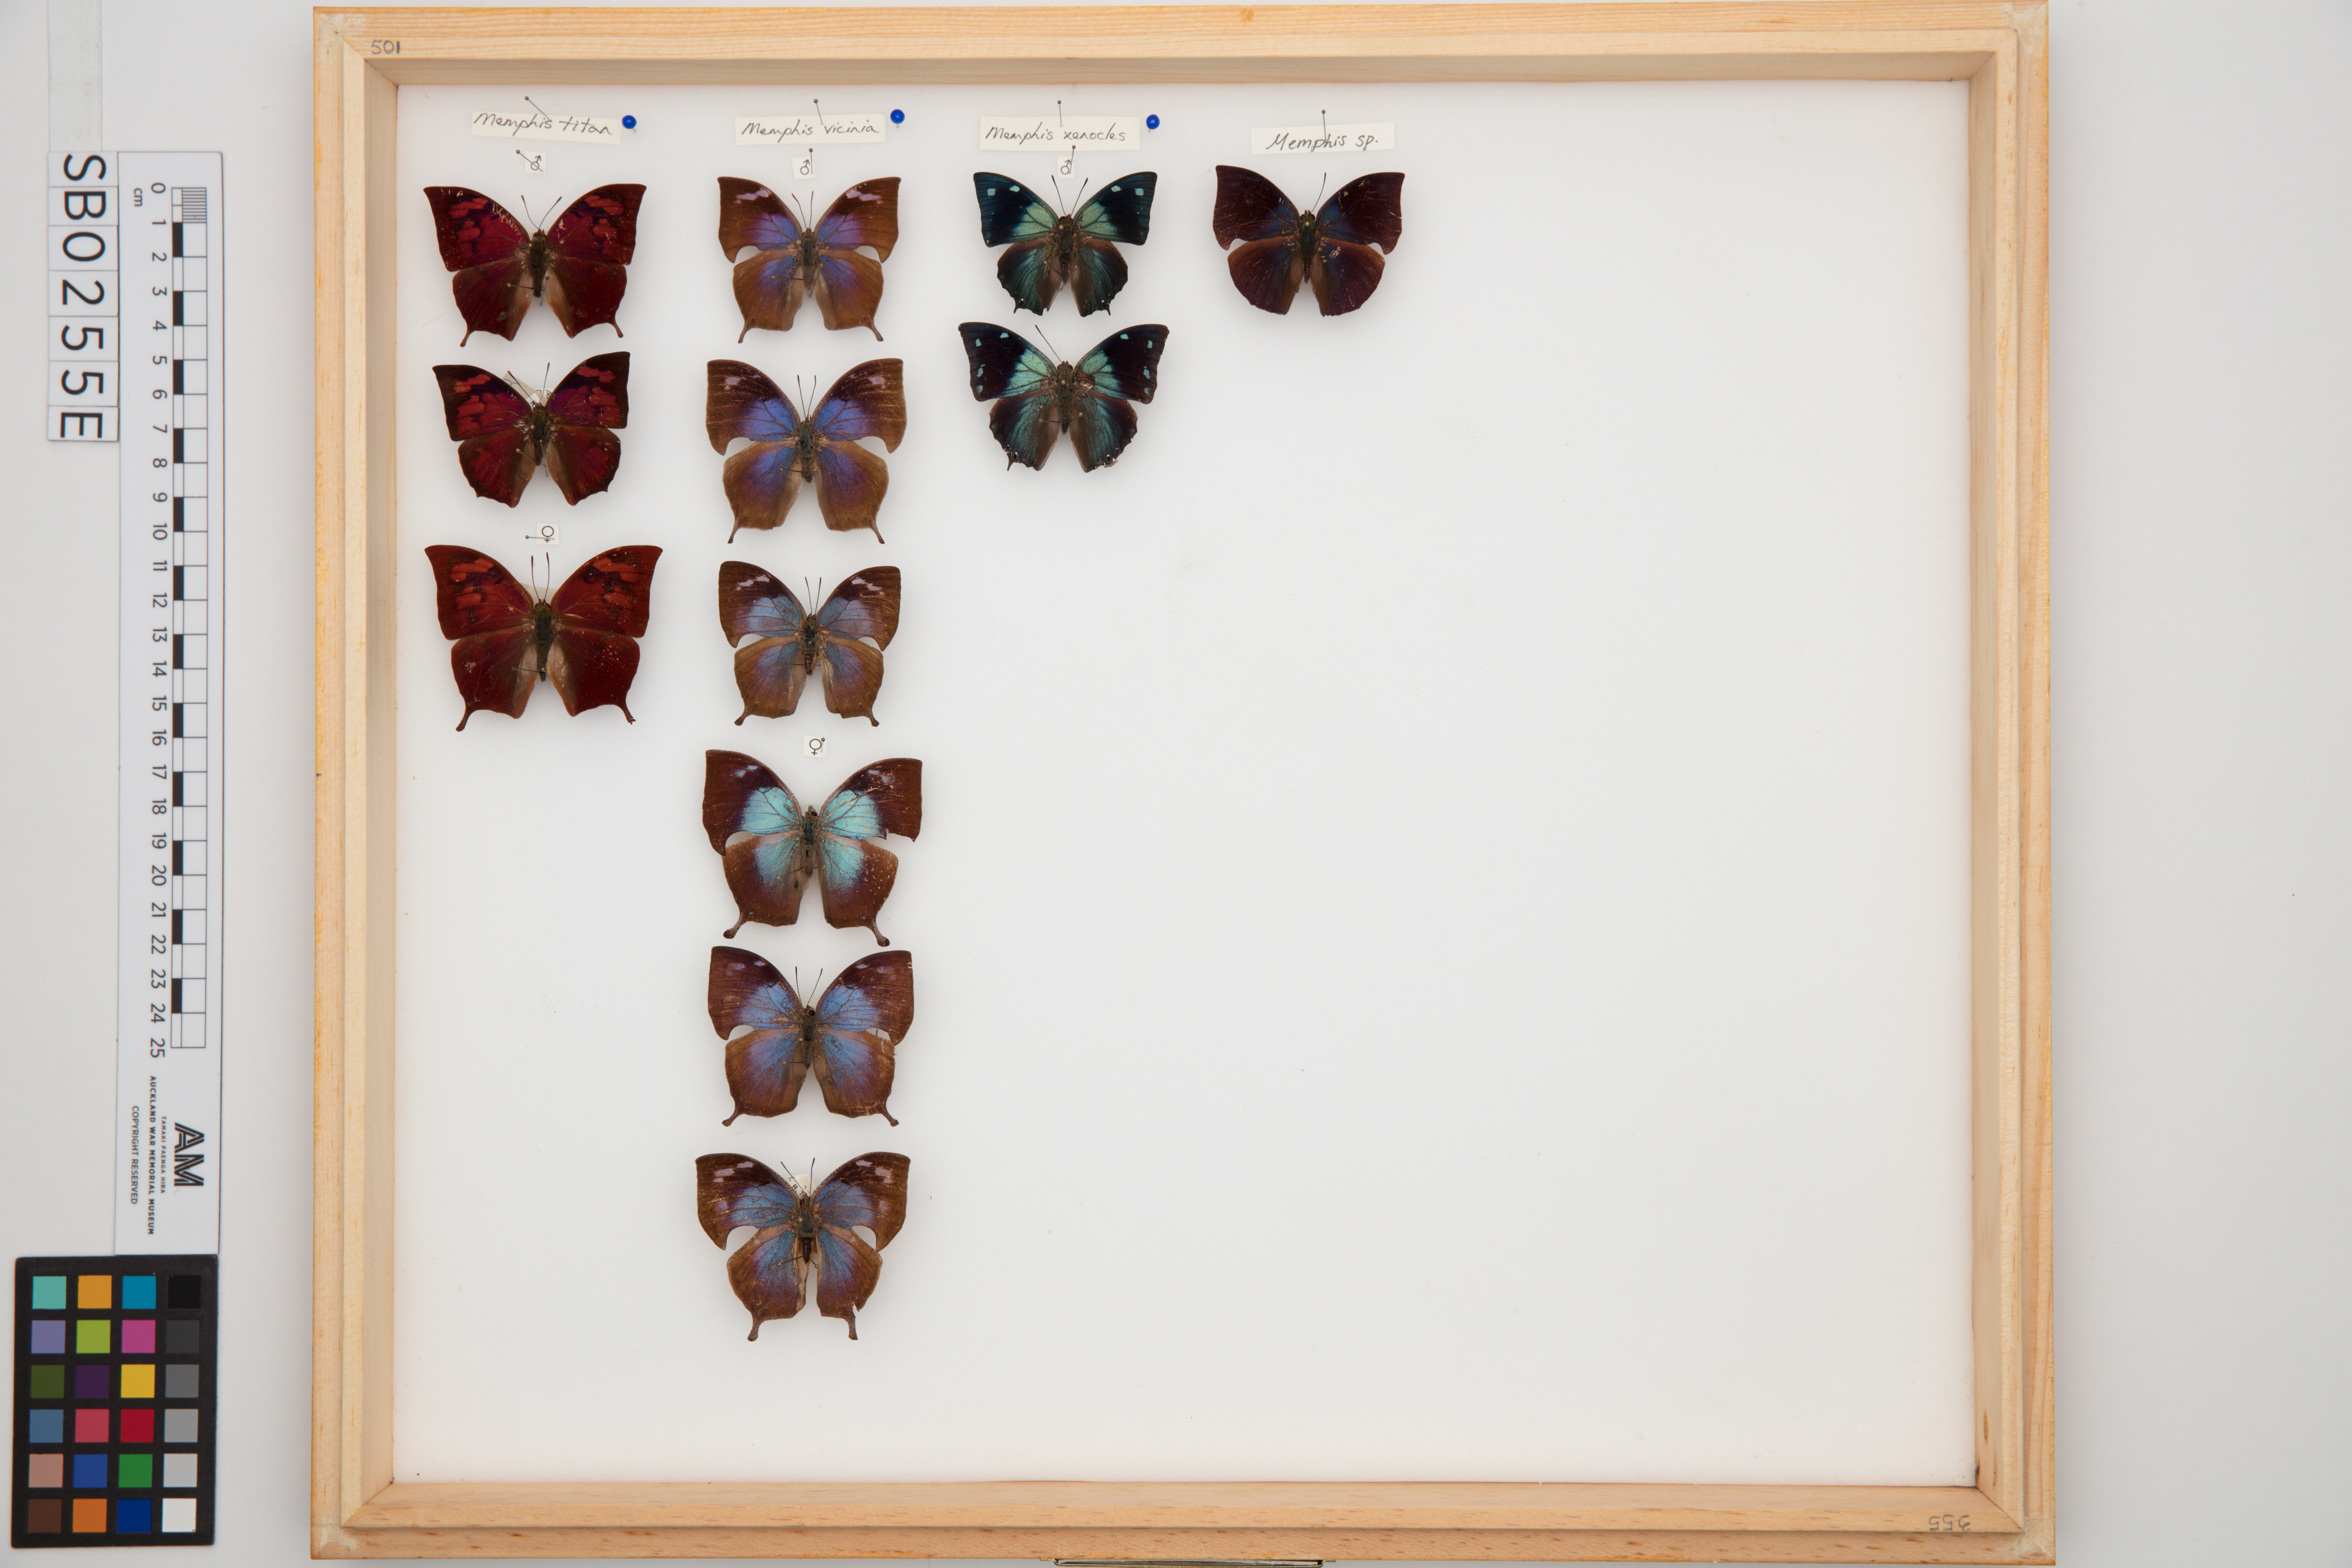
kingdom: Animalia
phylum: Arthropoda
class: Insecta
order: Lepidoptera
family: Nymphalidae
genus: Memphis
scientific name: Memphis
